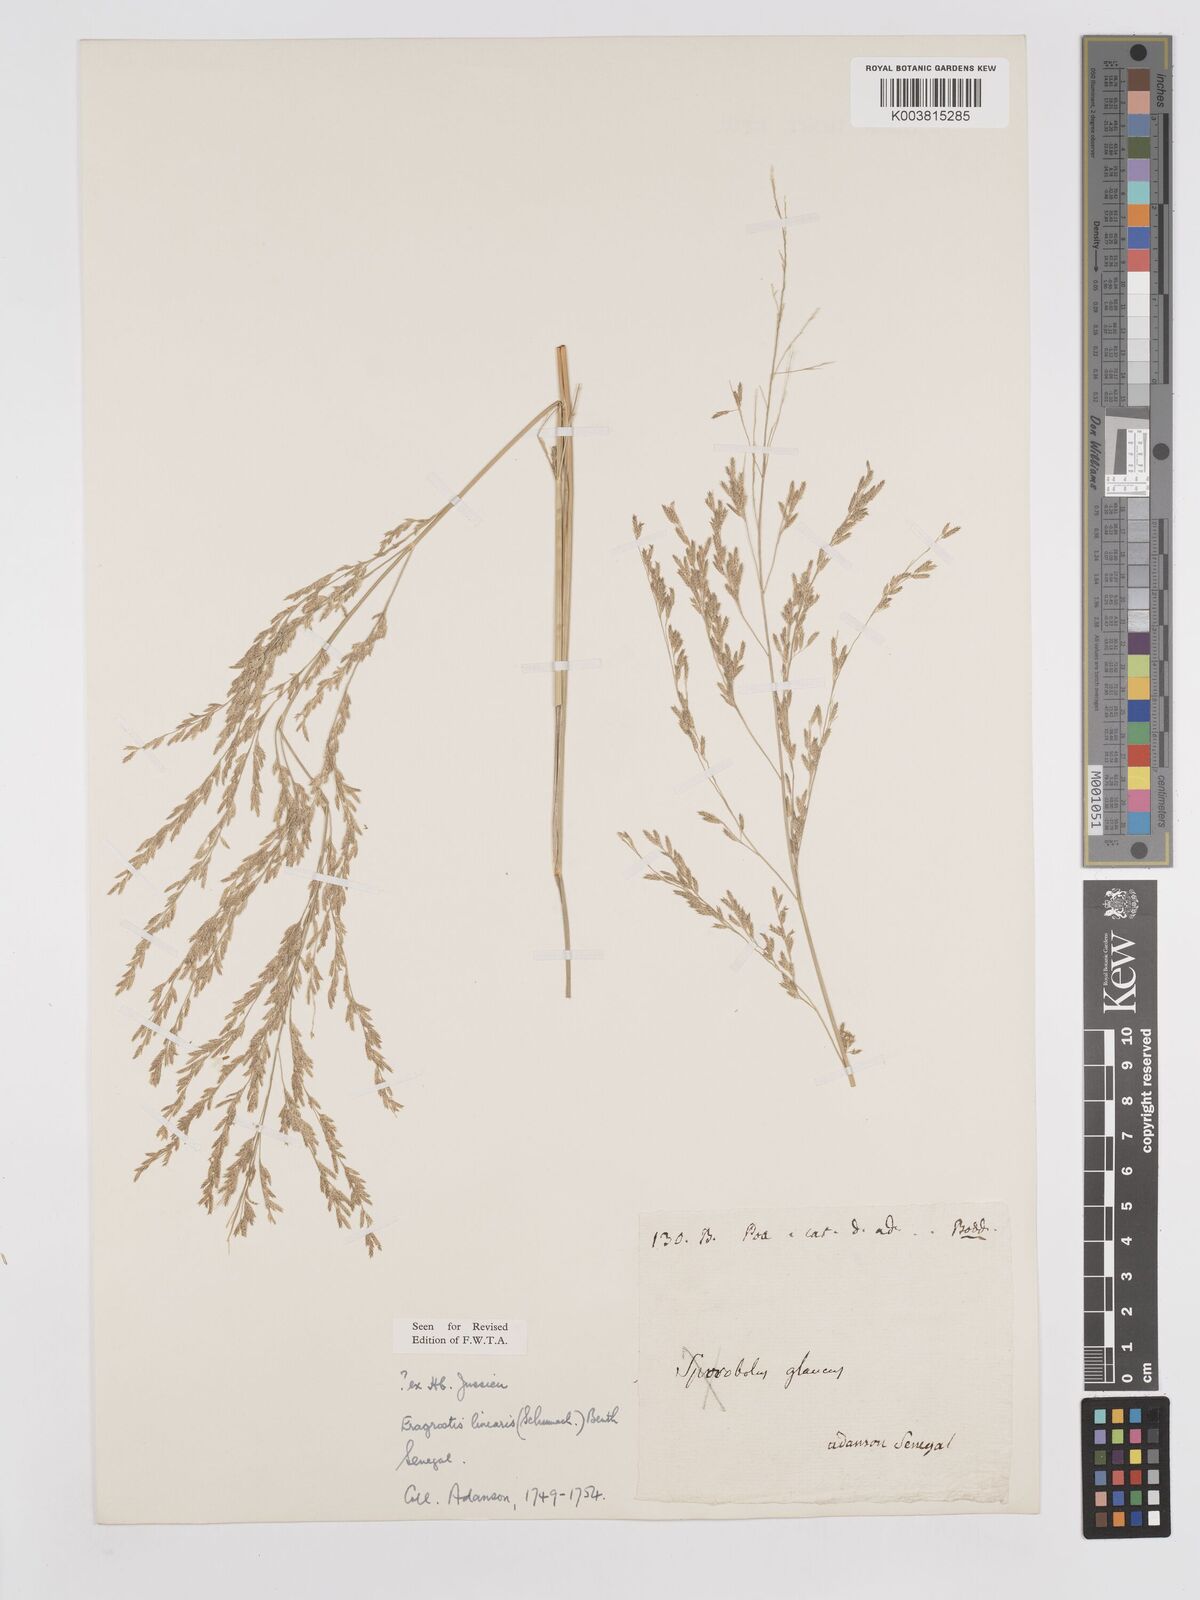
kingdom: Plantae
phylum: Tracheophyta
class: Liliopsida
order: Poales
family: Poaceae
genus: Eragrostis
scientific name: Eragrostis prolifera
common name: Dominican lovegrass
